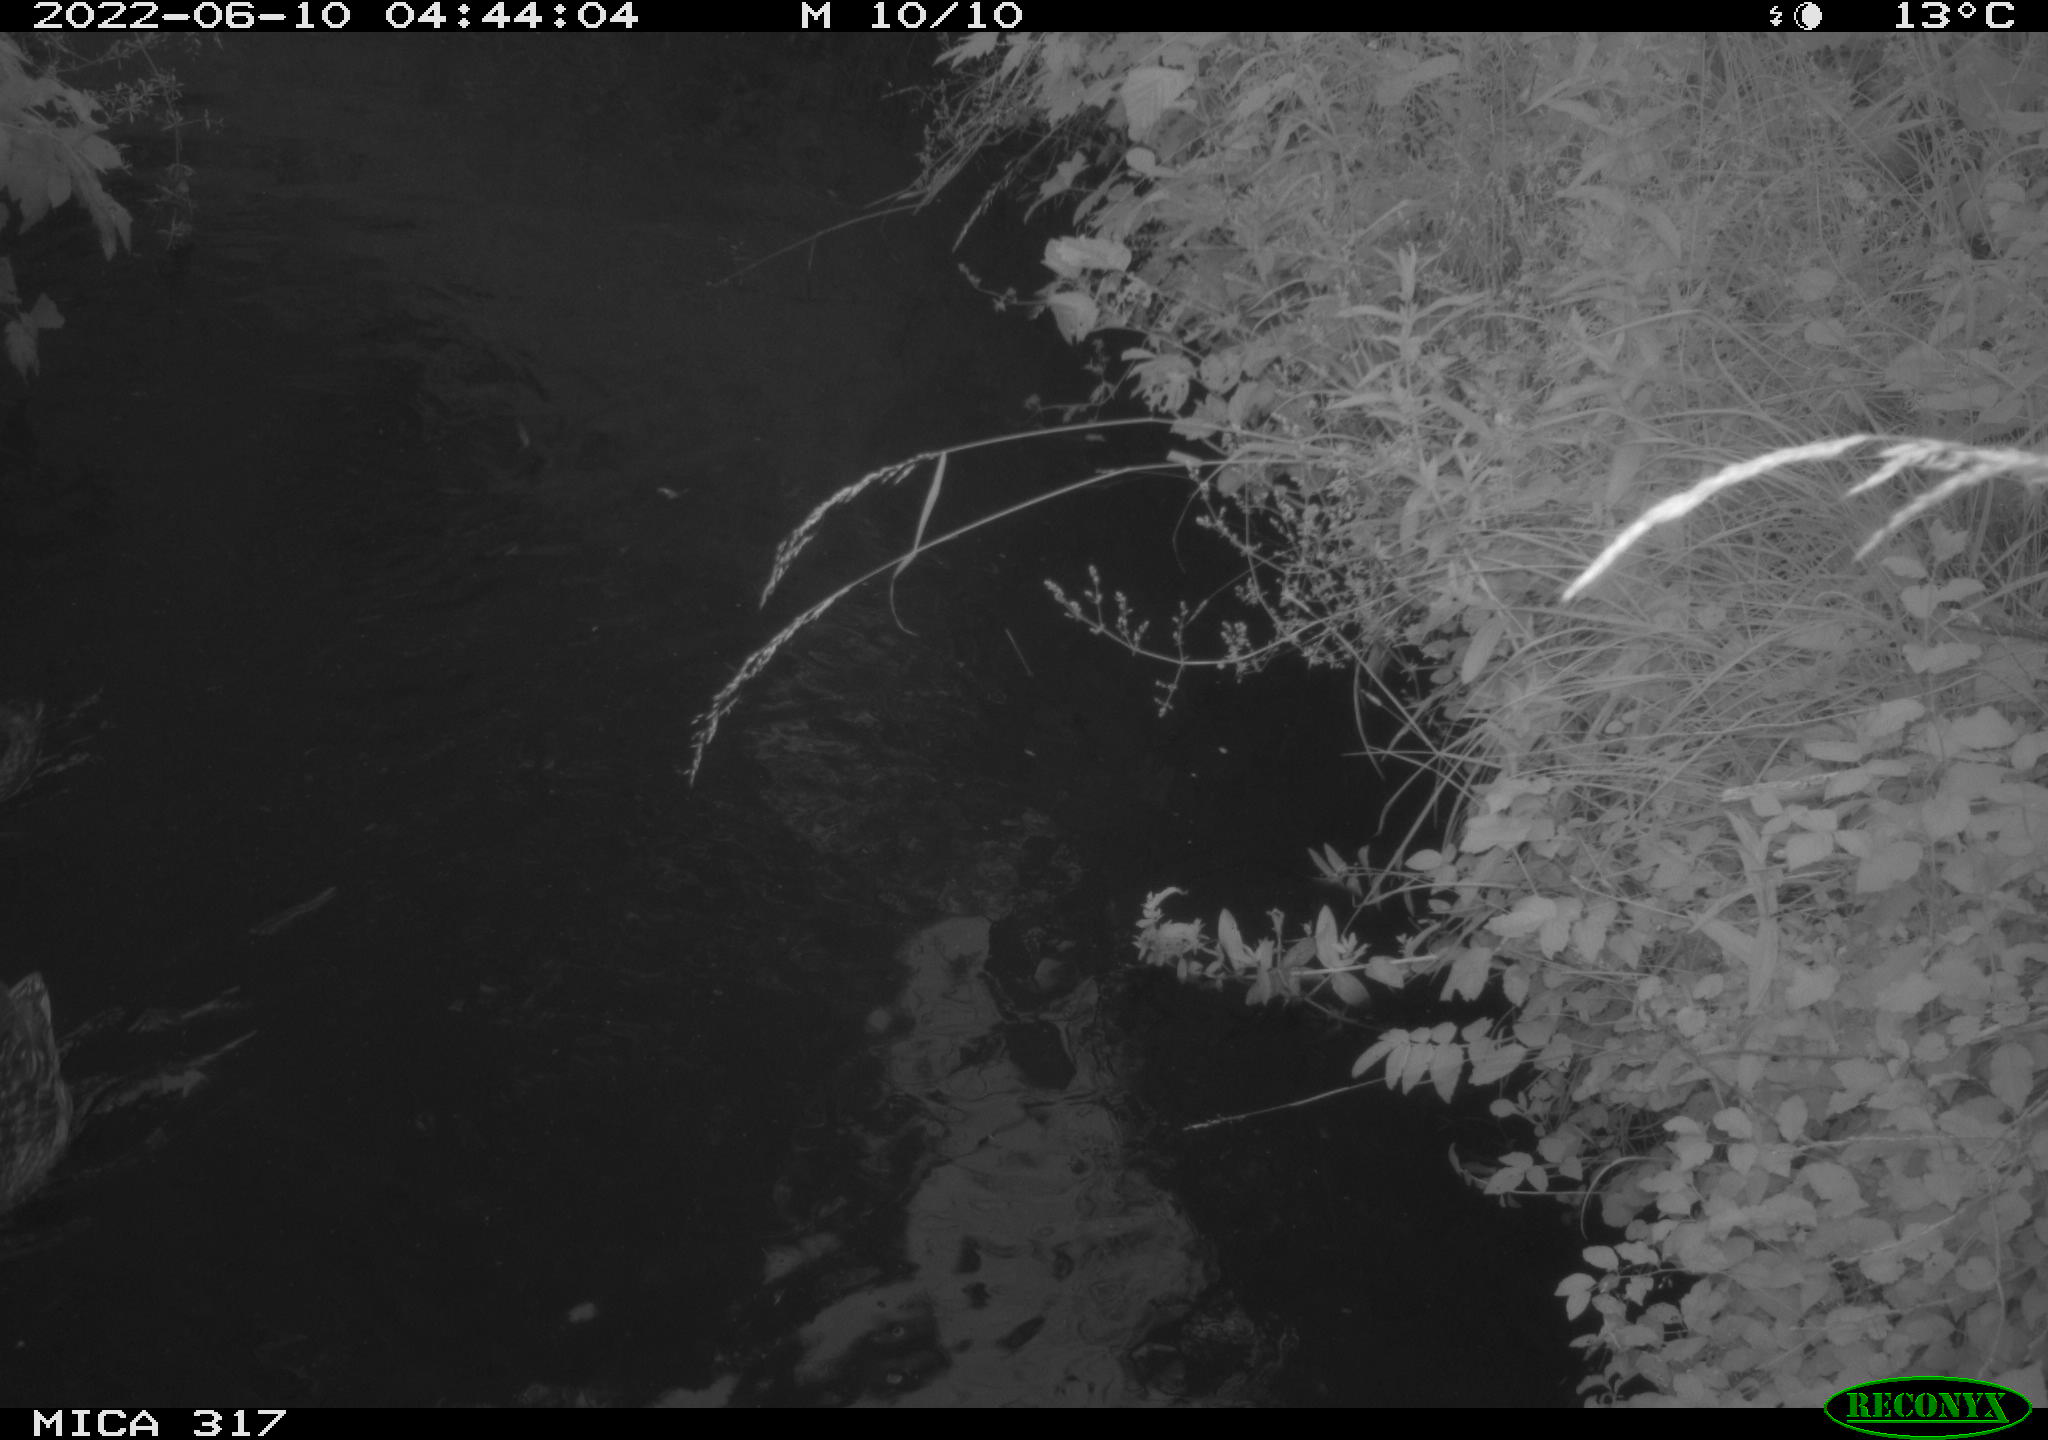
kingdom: Animalia
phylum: Chordata
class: Aves
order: Anseriformes
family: Anatidae
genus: Anas
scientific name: Anas
